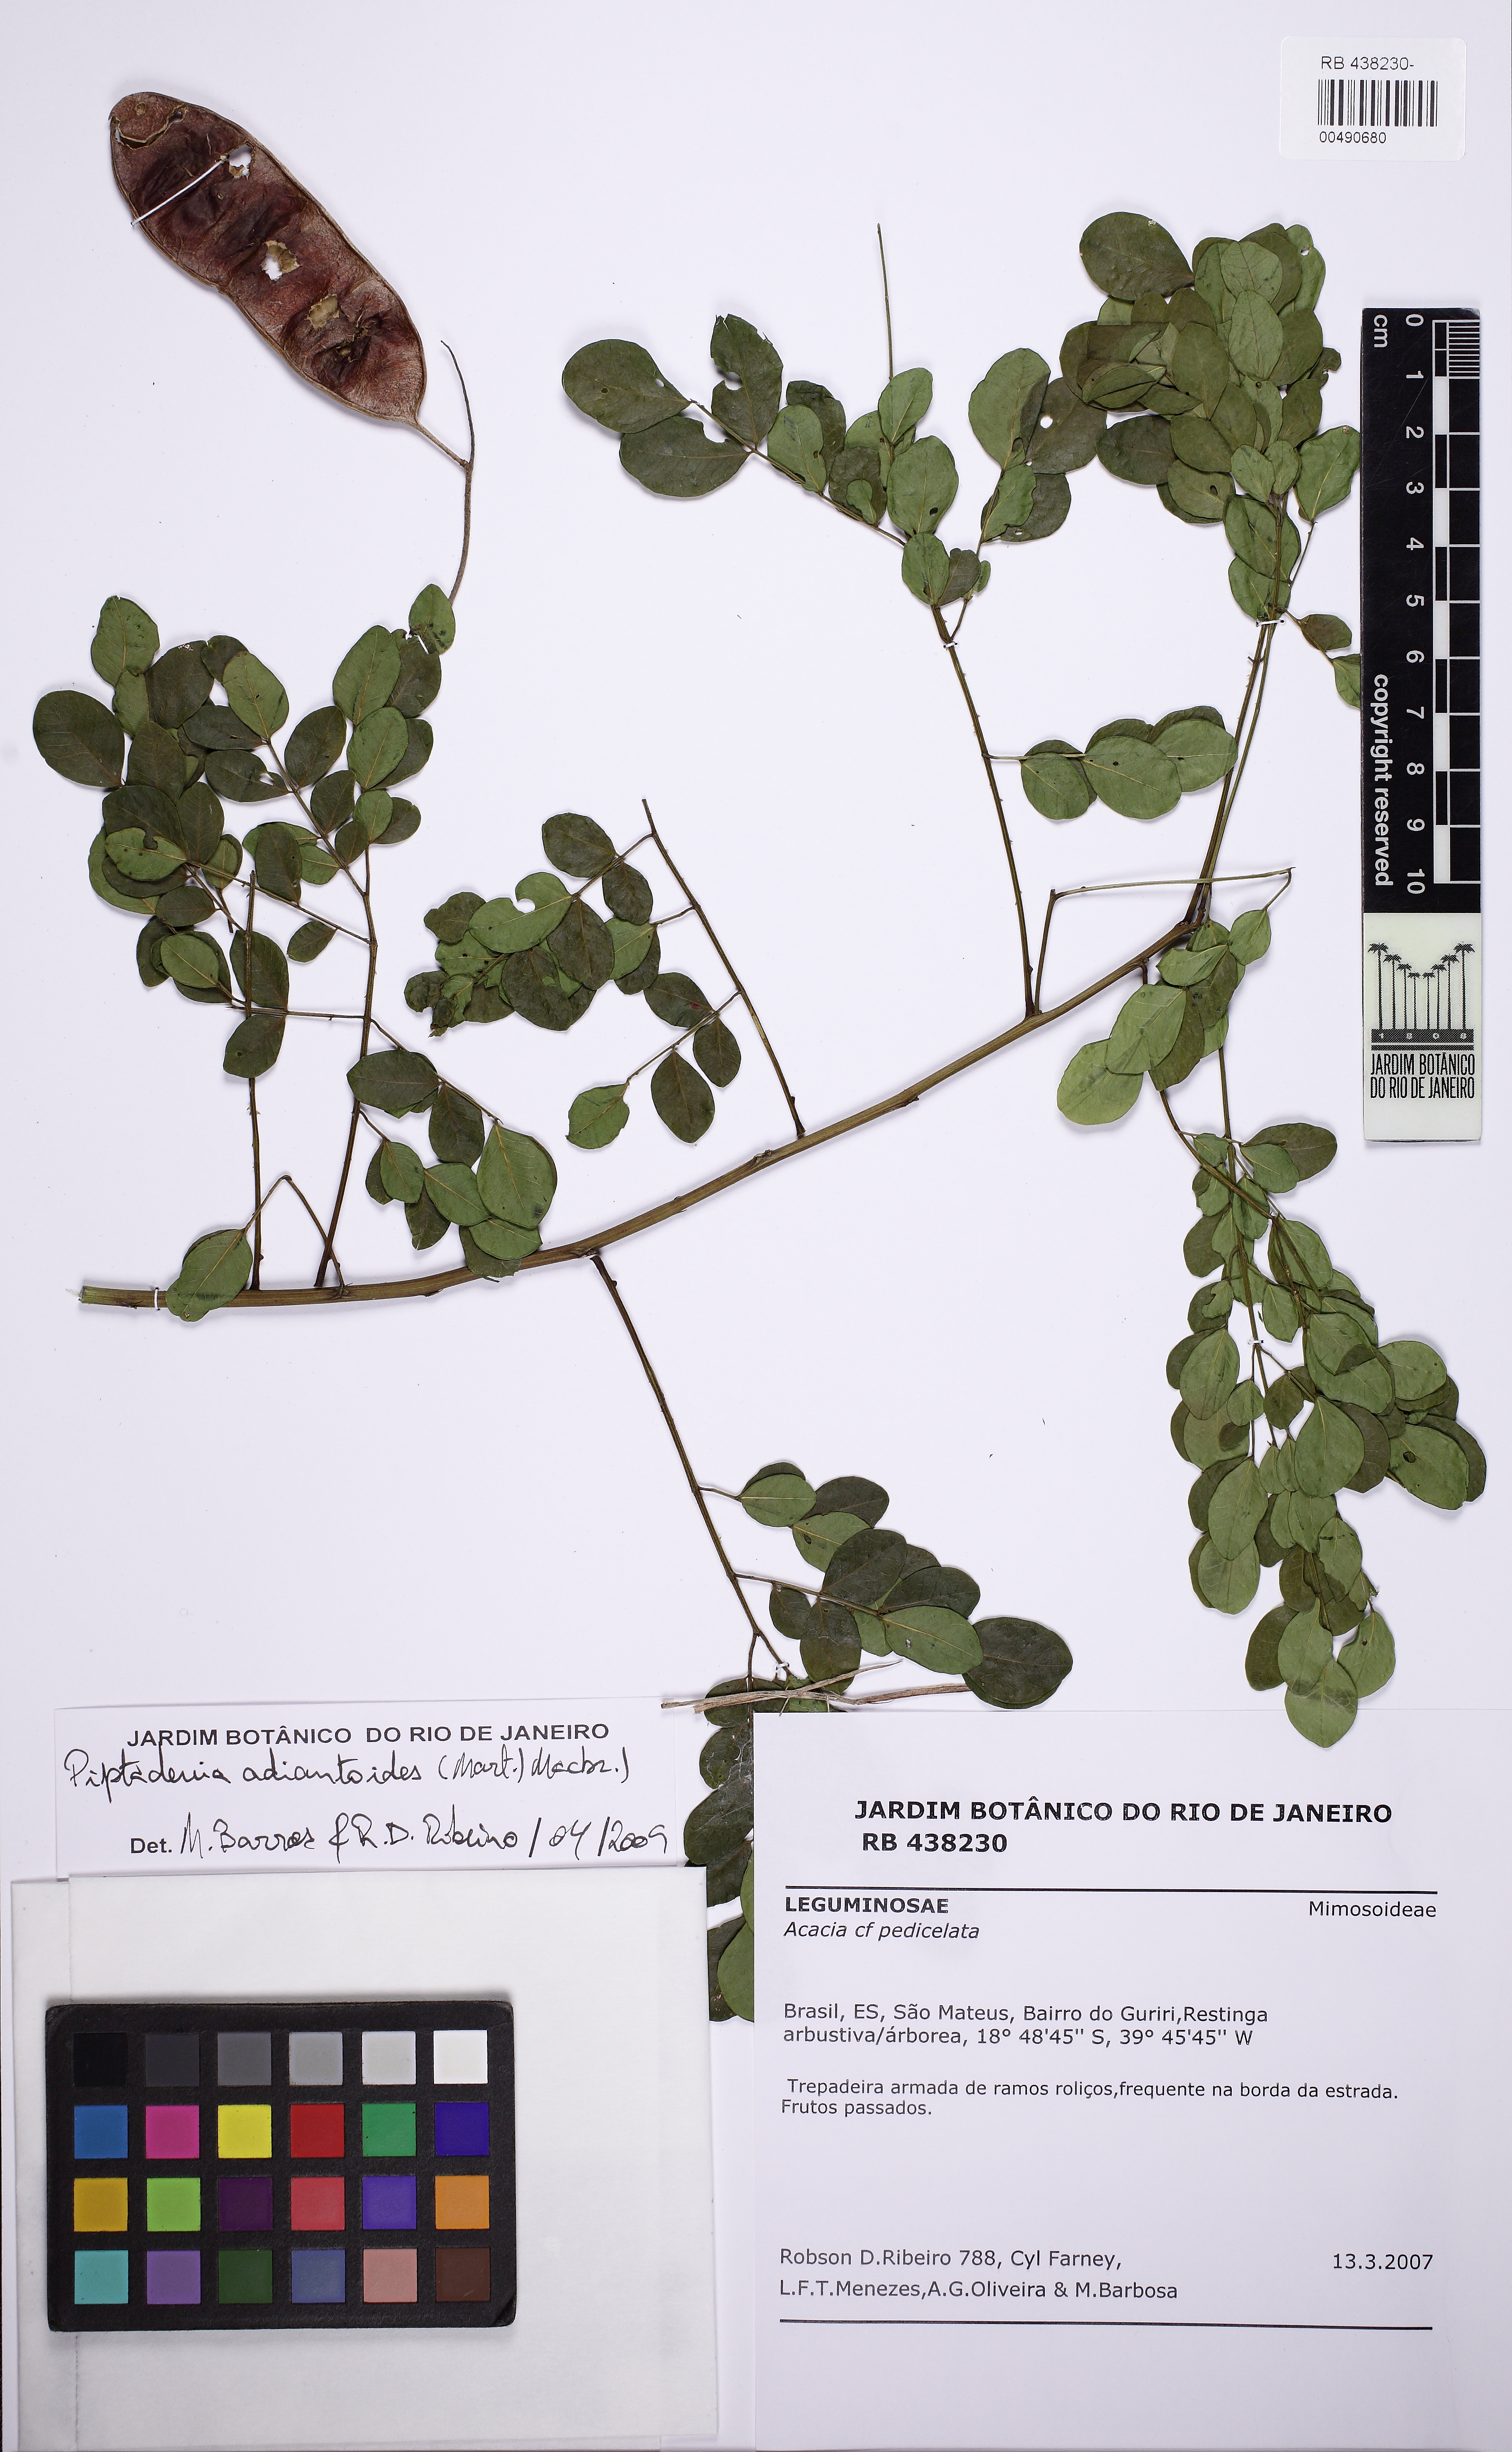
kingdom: Plantae
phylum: Tracheophyta
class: Magnoliopsida
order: Fabales
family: Fabaceae
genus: Piptadenia
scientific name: Piptadenia adiantoides
